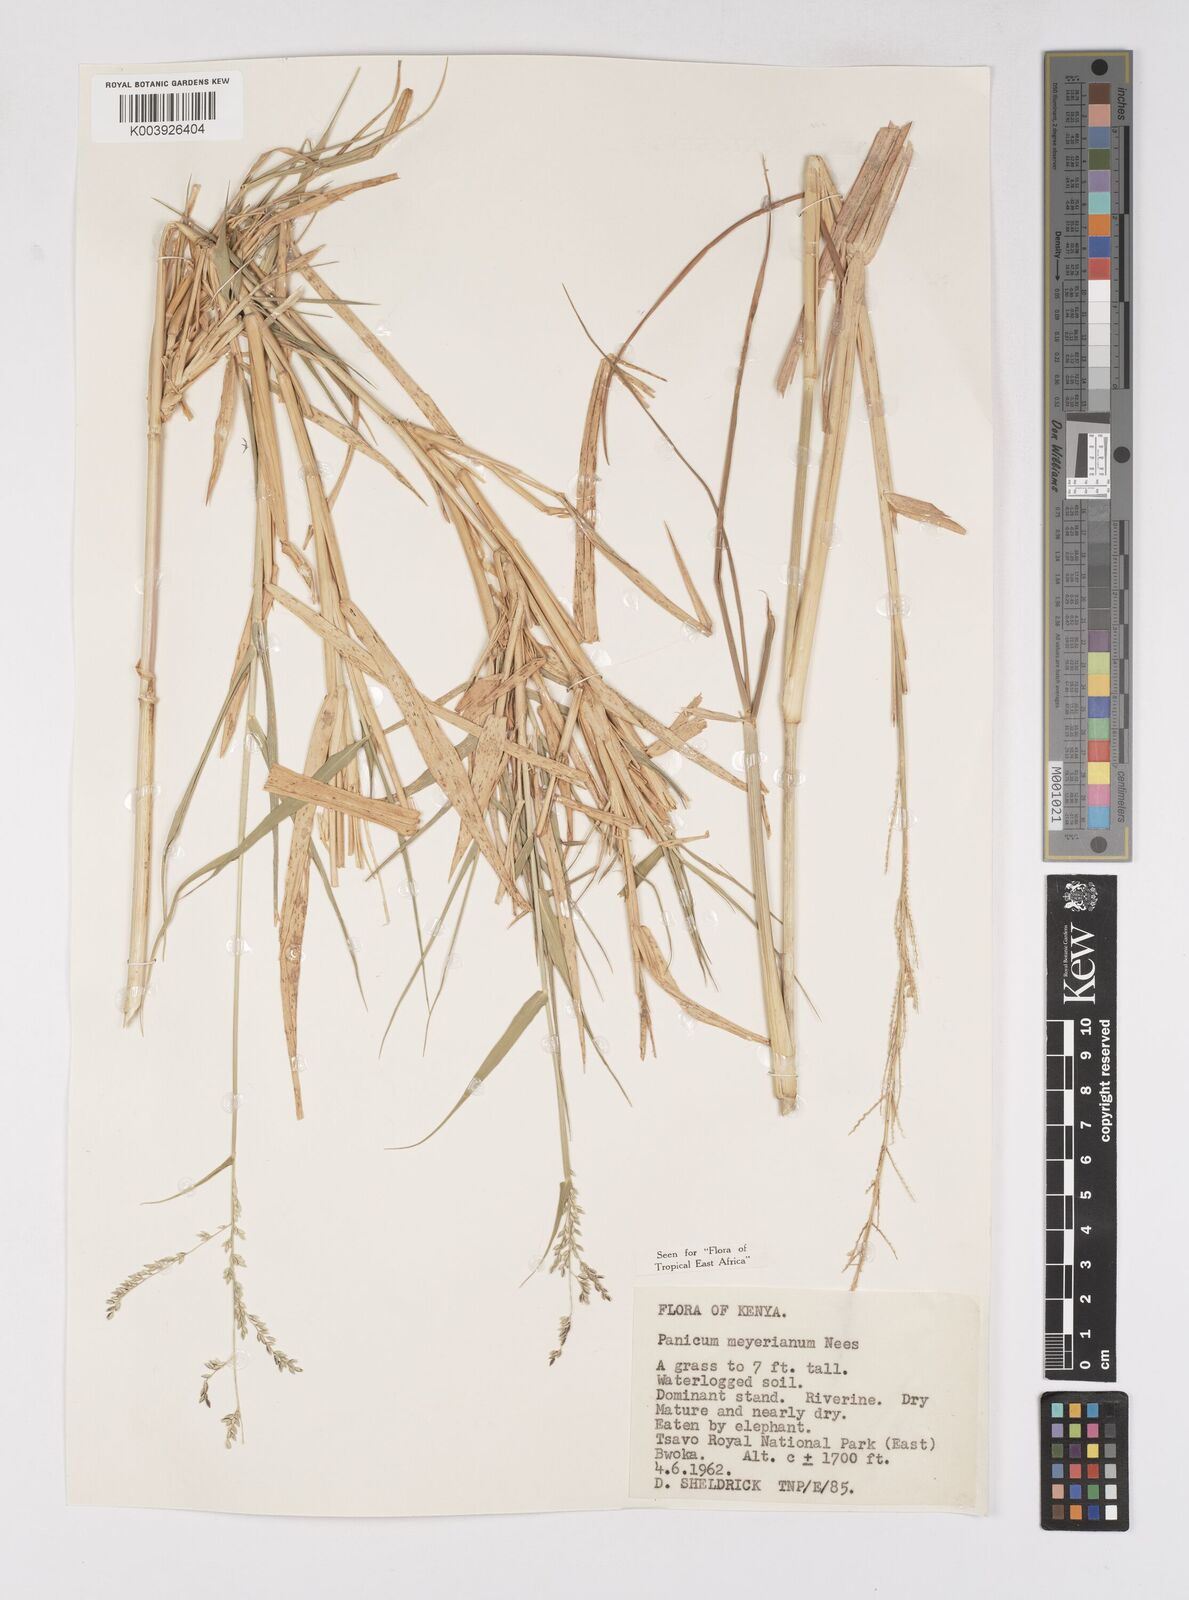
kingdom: Plantae
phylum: Tracheophyta
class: Liliopsida
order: Poales
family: Poaceae
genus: Eriochloa
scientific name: Eriochloa meyeriana
